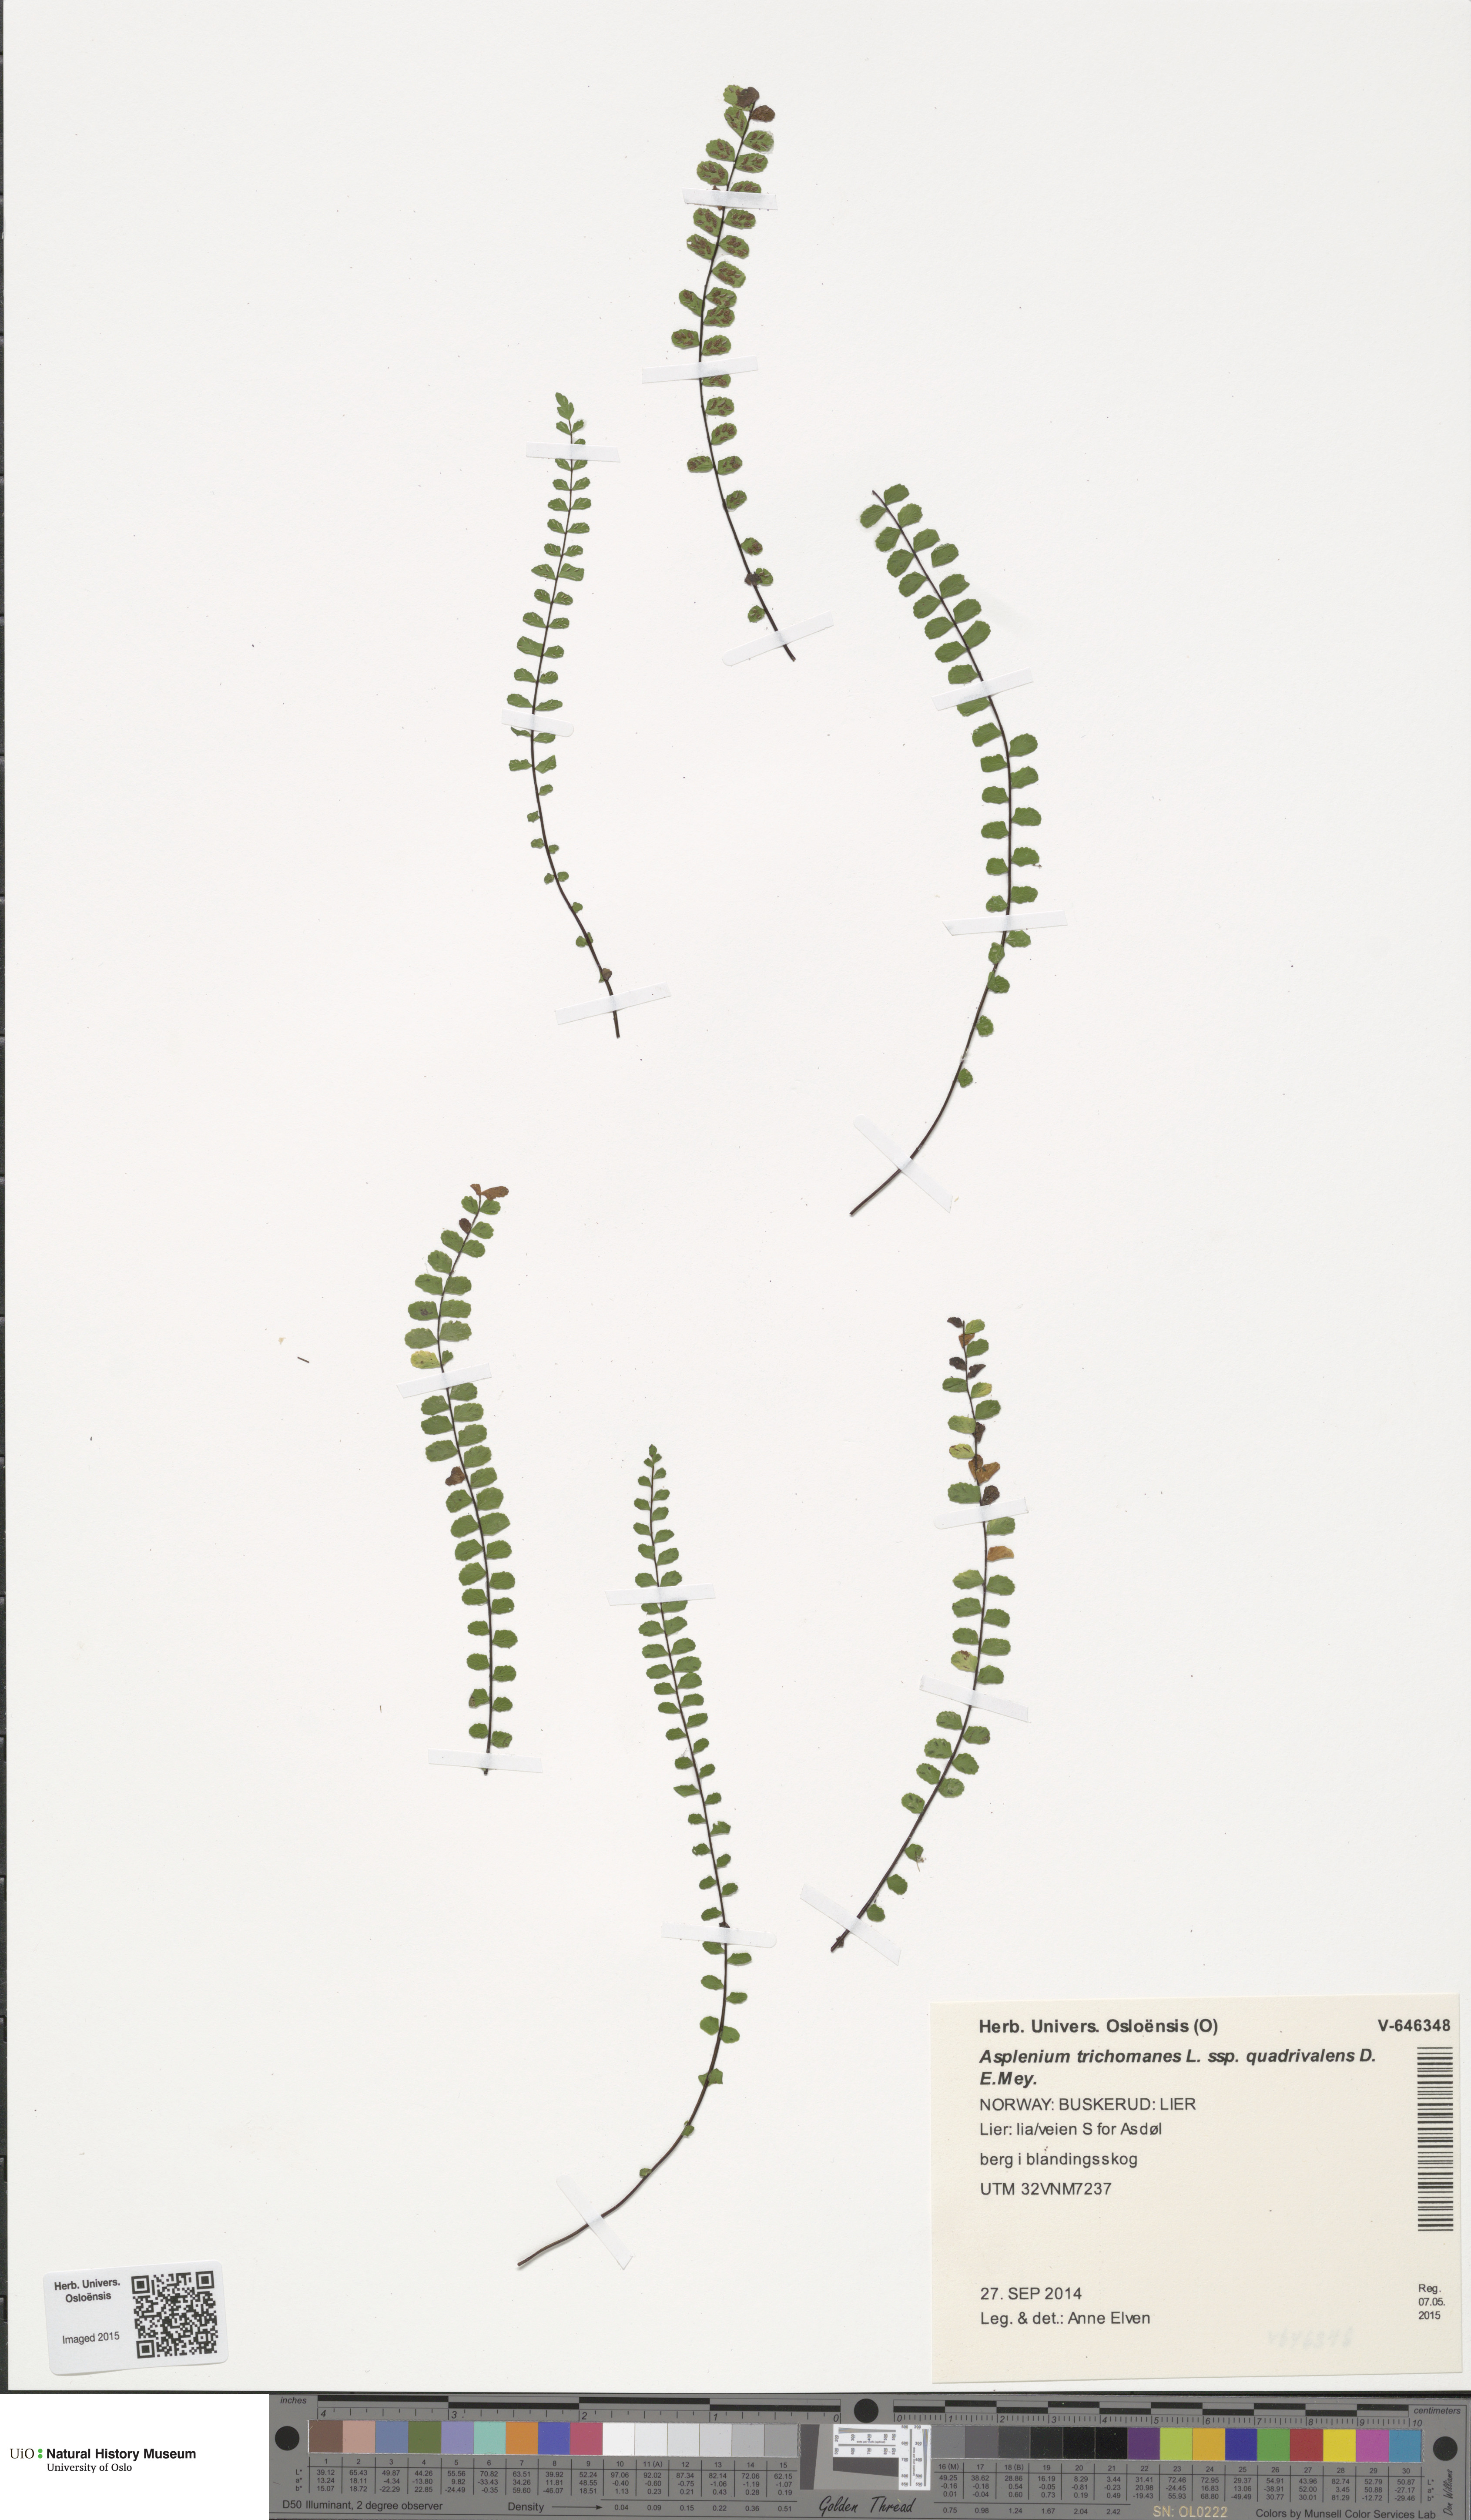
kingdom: Plantae
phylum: Tracheophyta
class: Polypodiopsida
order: Polypodiales
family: Aspleniaceae
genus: Asplenium
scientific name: Asplenium quadrivalens
